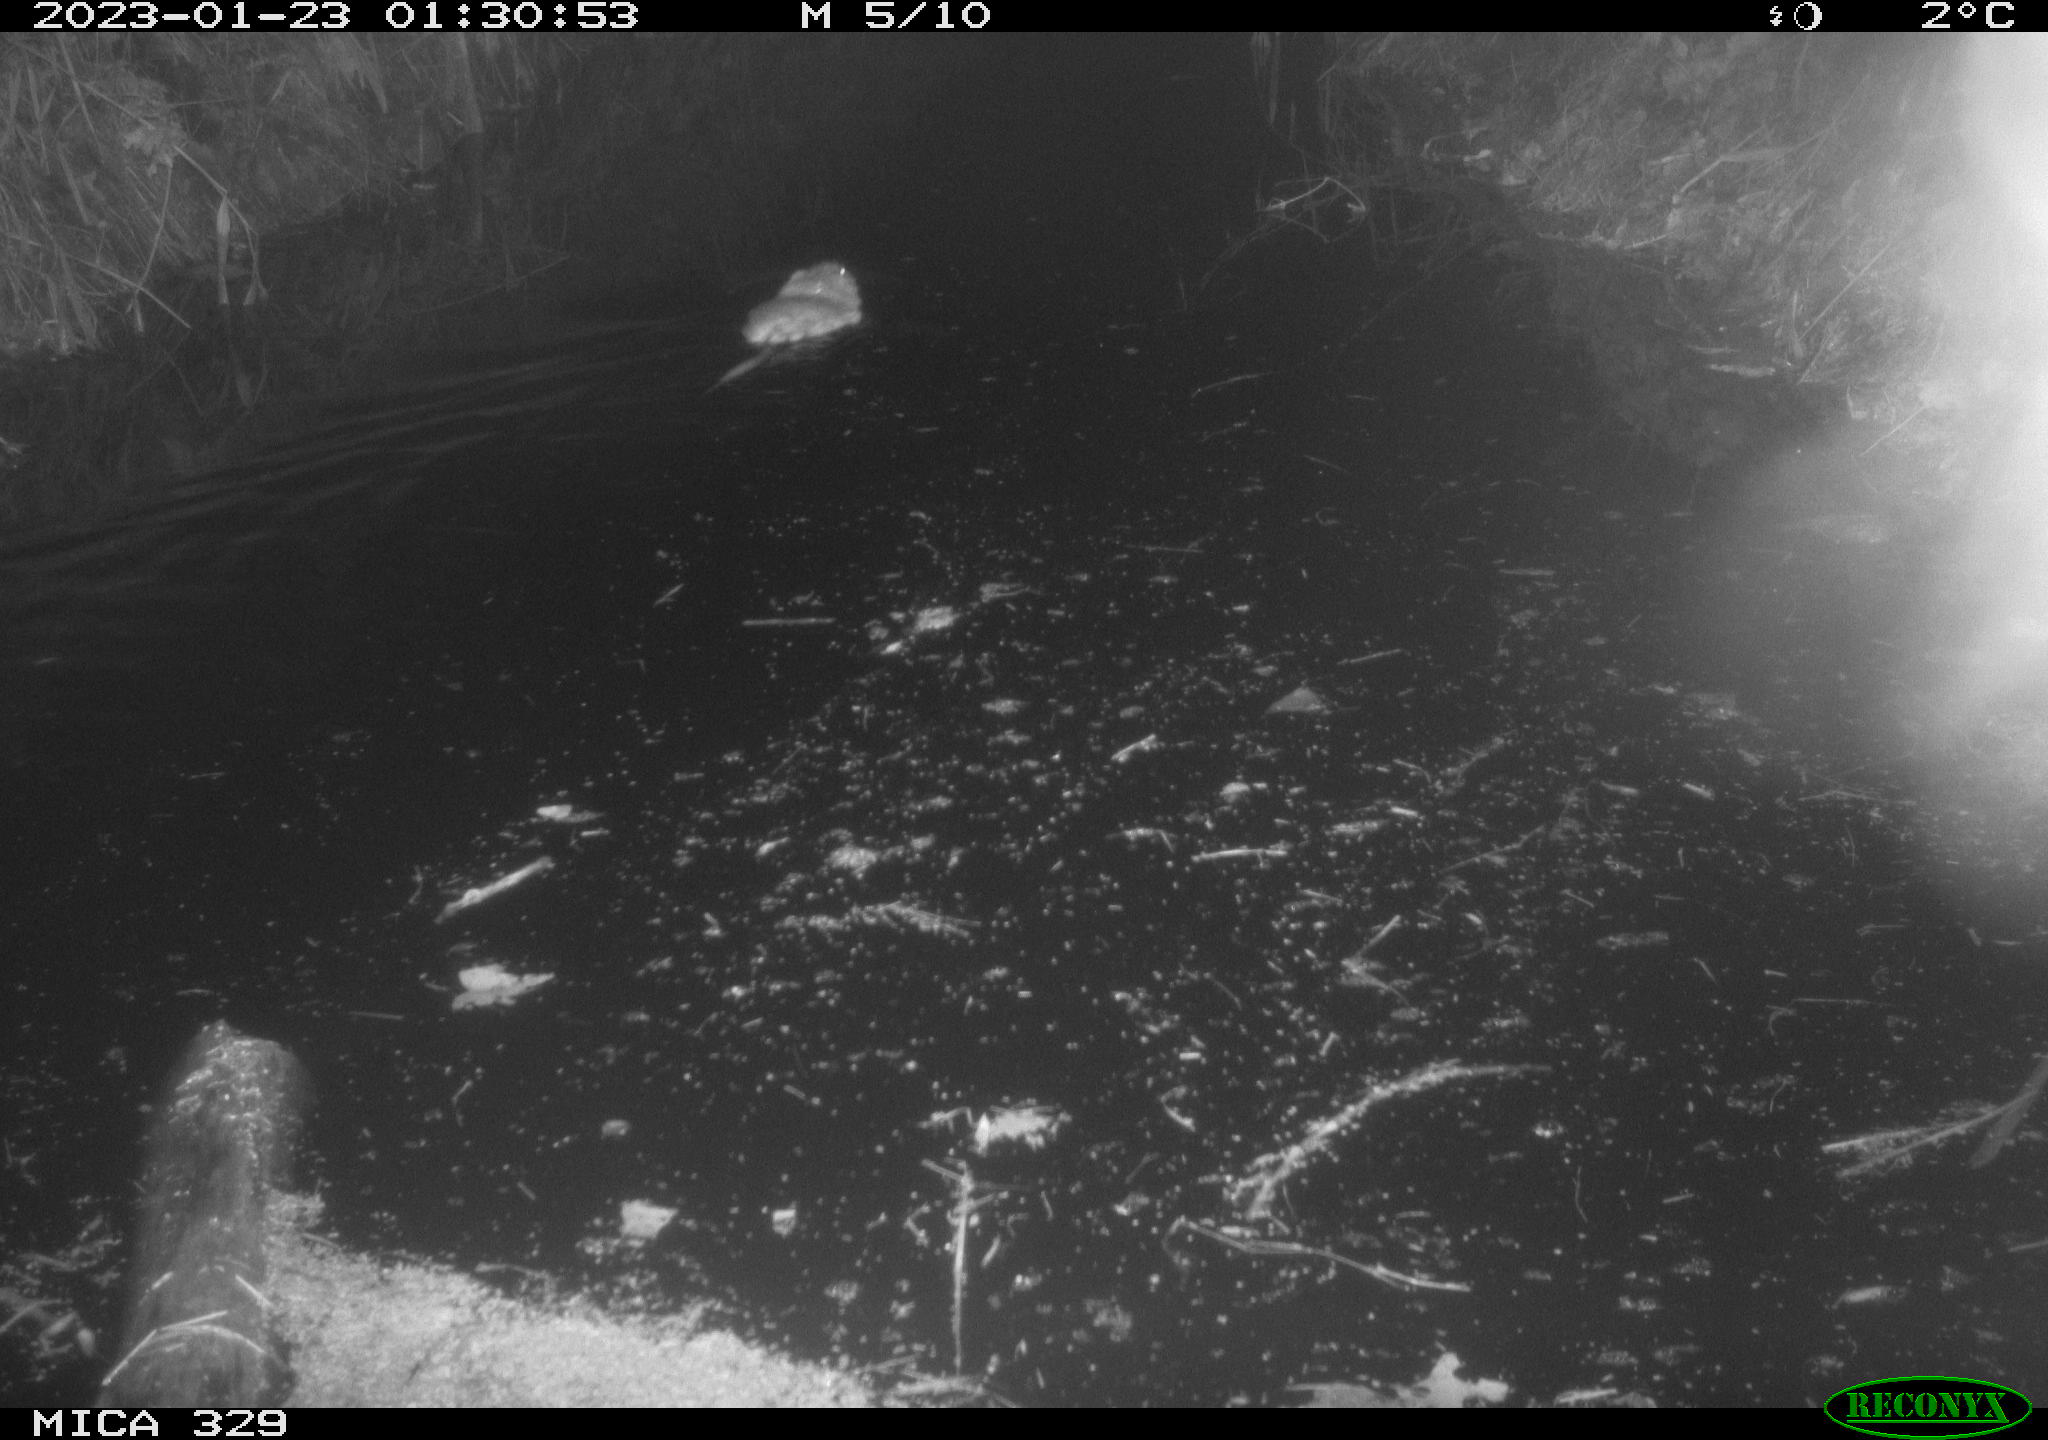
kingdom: Animalia
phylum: Chordata
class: Mammalia
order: Rodentia
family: Cricetidae
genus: Ondatra
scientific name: Ondatra zibethicus
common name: Muskrat
